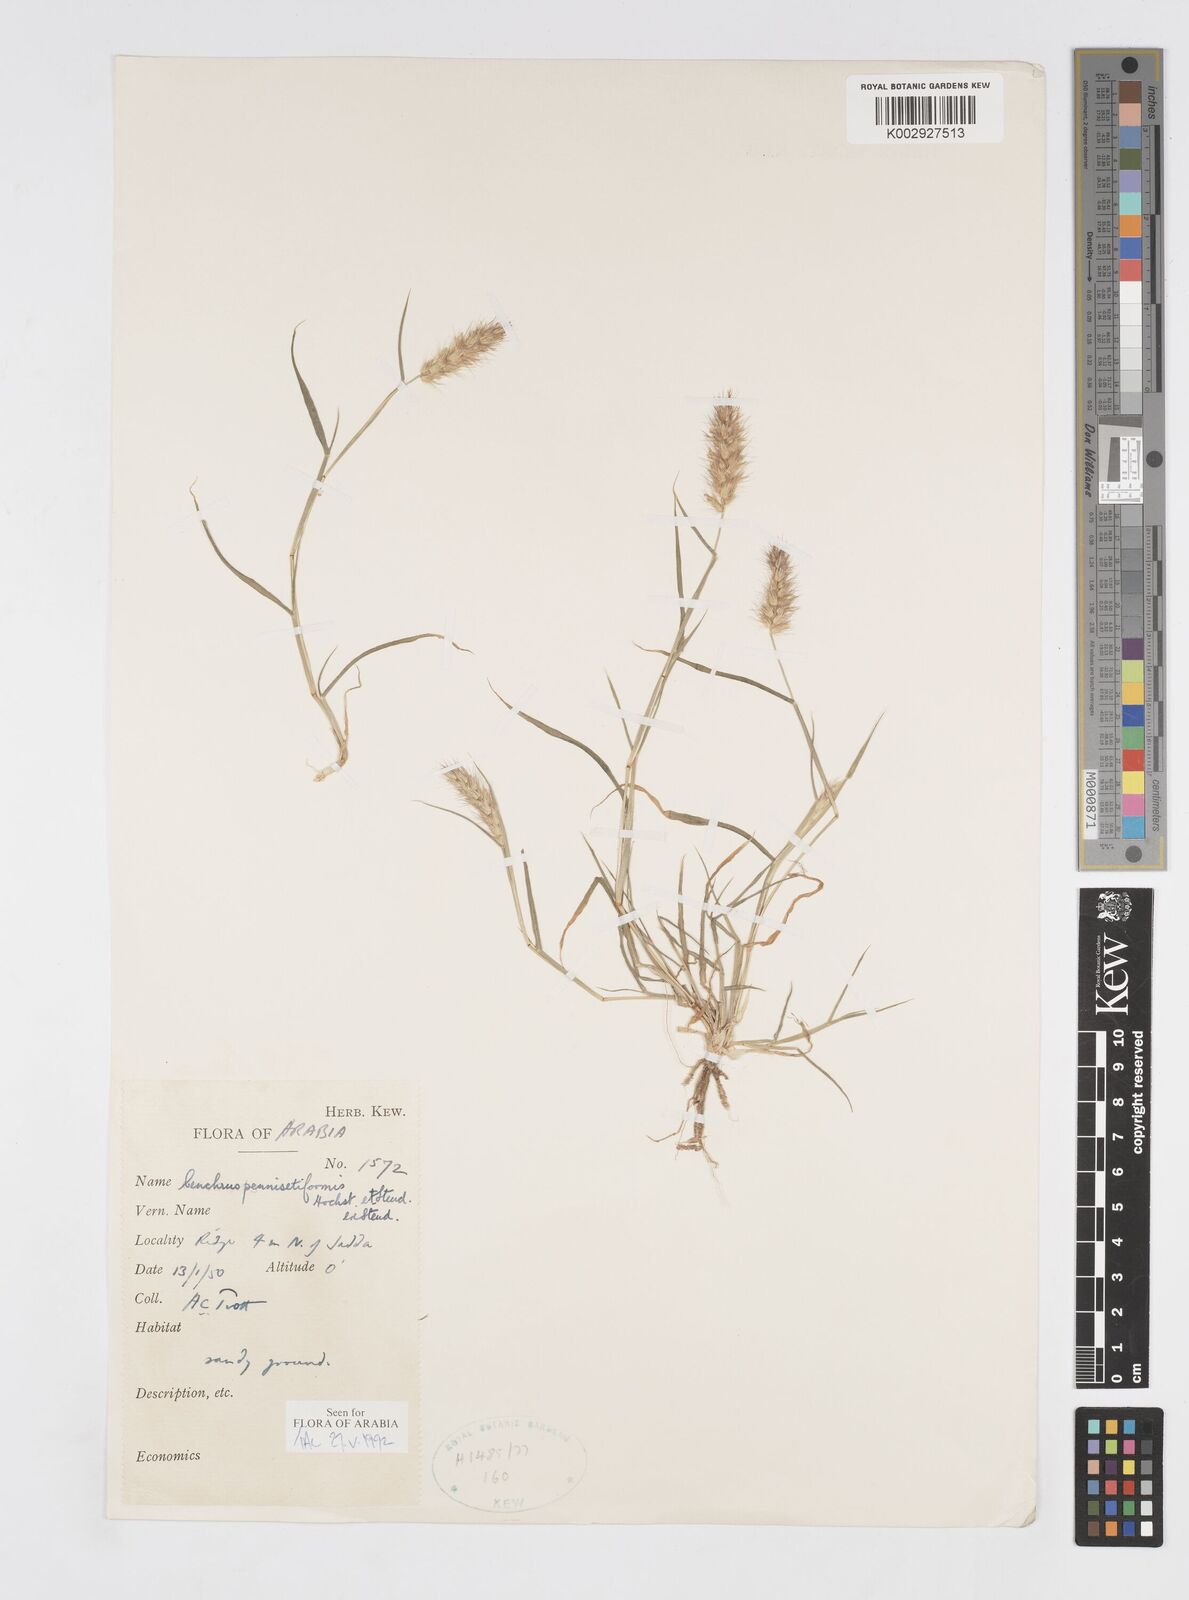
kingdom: Plantae
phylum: Tracheophyta
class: Liliopsida
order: Poales
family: Poaceae
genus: Cenchrus
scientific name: Cenchrus pennisetiformis
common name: Cloncurry
